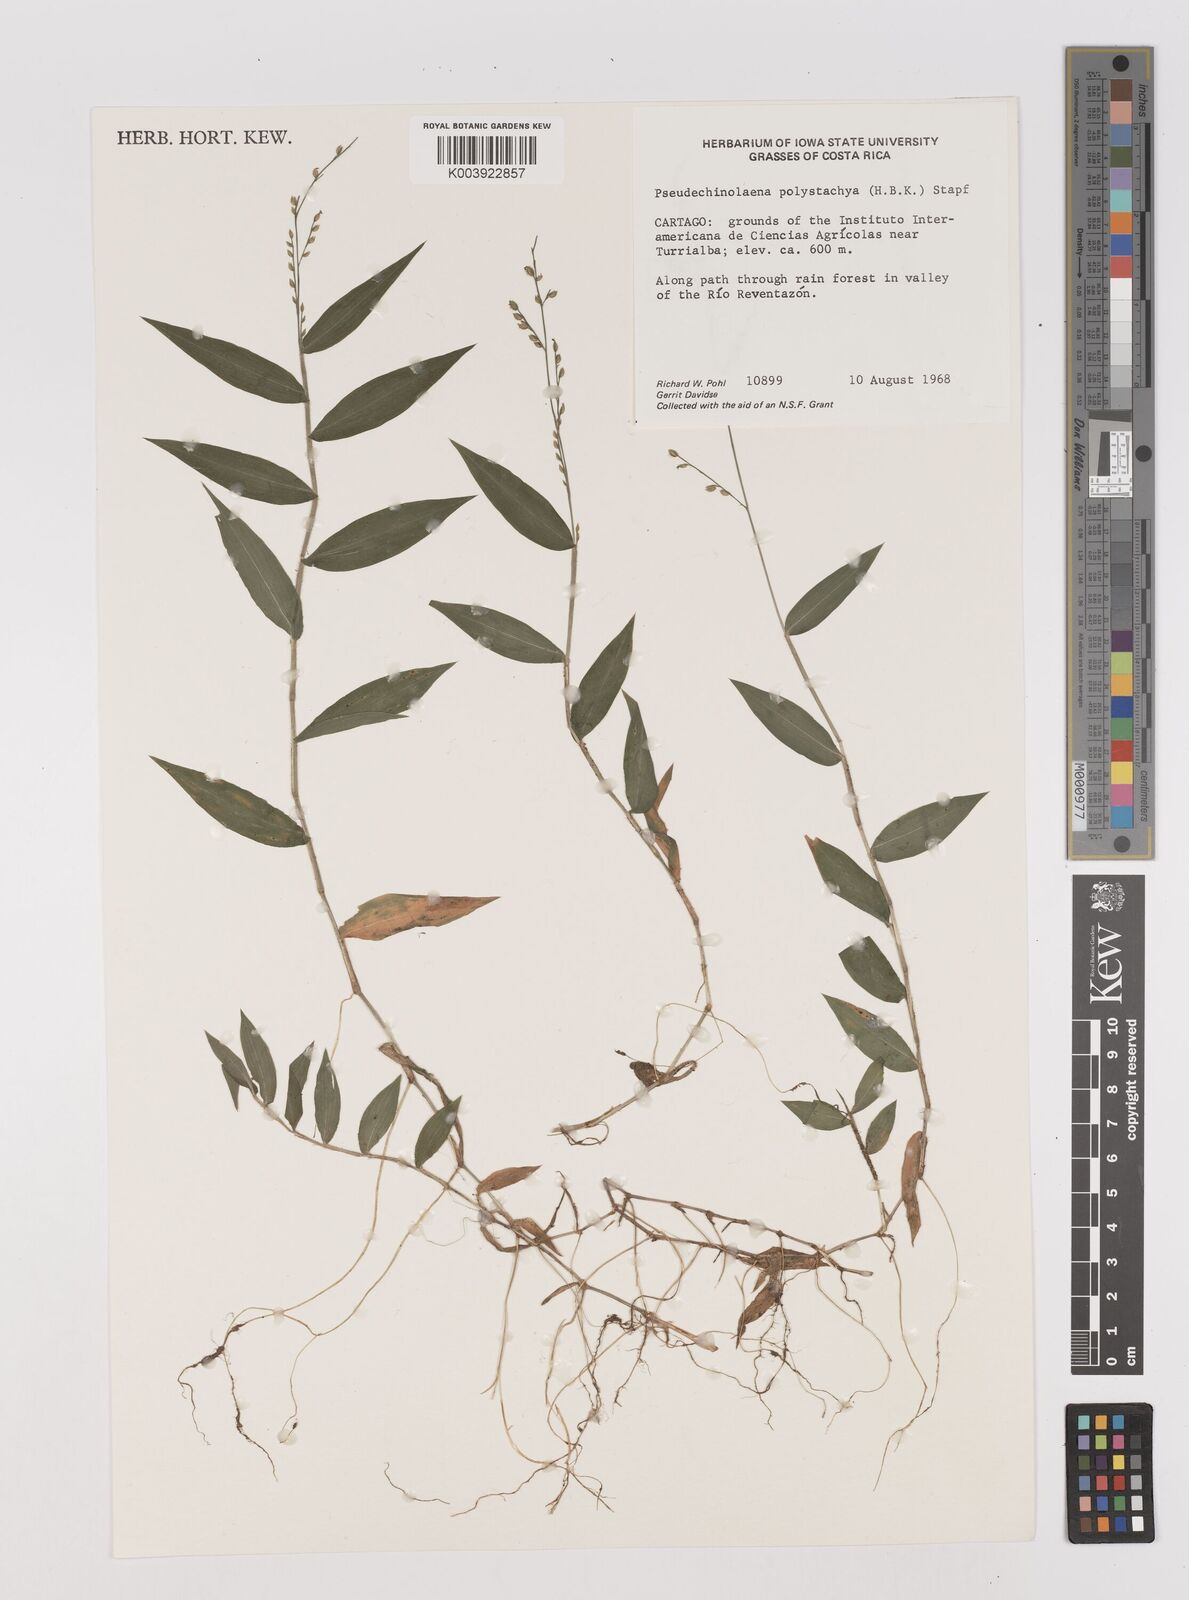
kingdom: Plantae
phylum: Tracheophyta
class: Liliopsida
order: Poales
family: Poaceae
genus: Pseudechinolaena
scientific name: Pseudechinolaena polystachya
